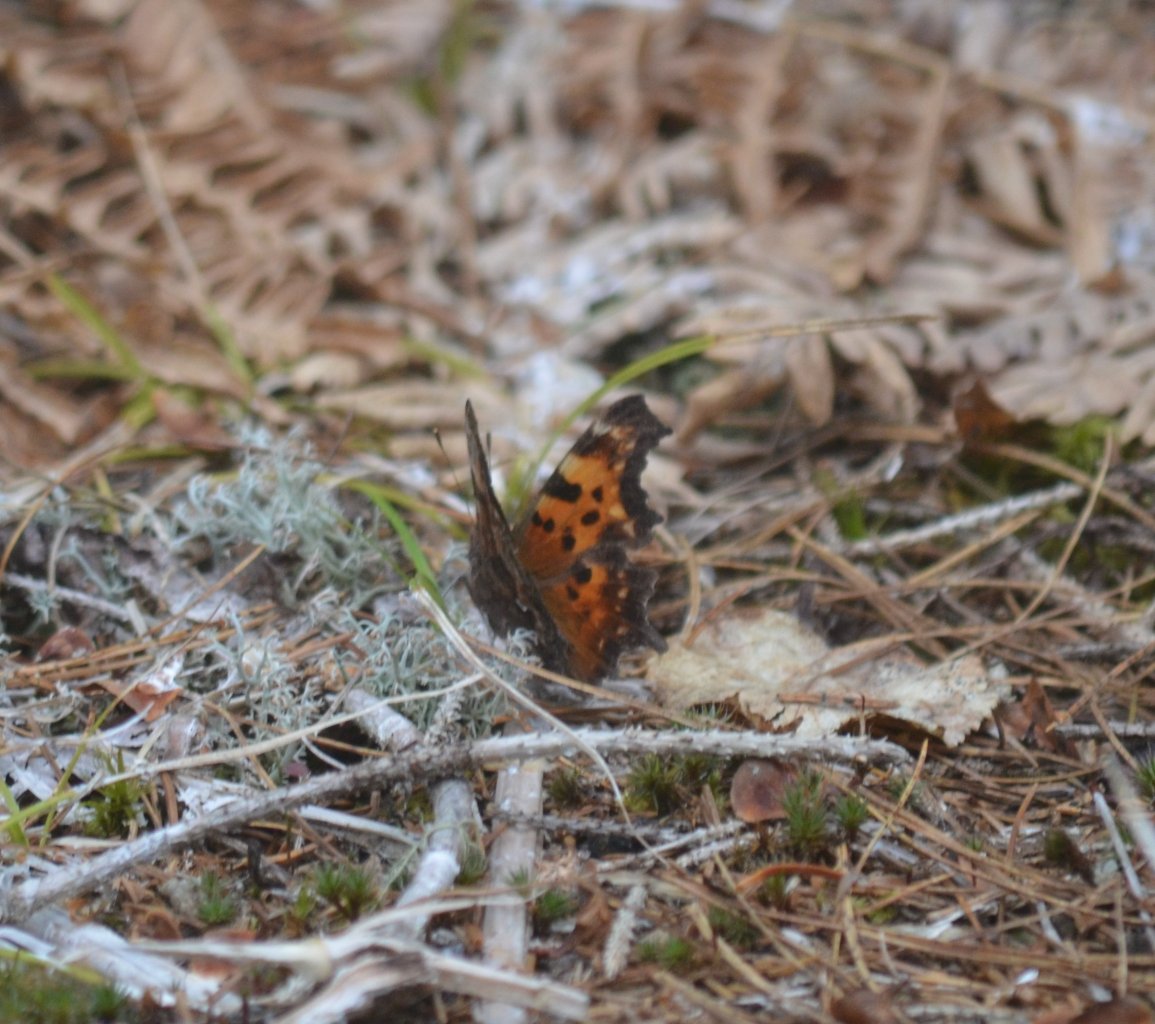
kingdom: Animalia
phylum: Arthropoda
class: Insecta
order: Lepidoptera
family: Nymphalidae
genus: Polygonia
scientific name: Polygonia faunus
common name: Green Comma
